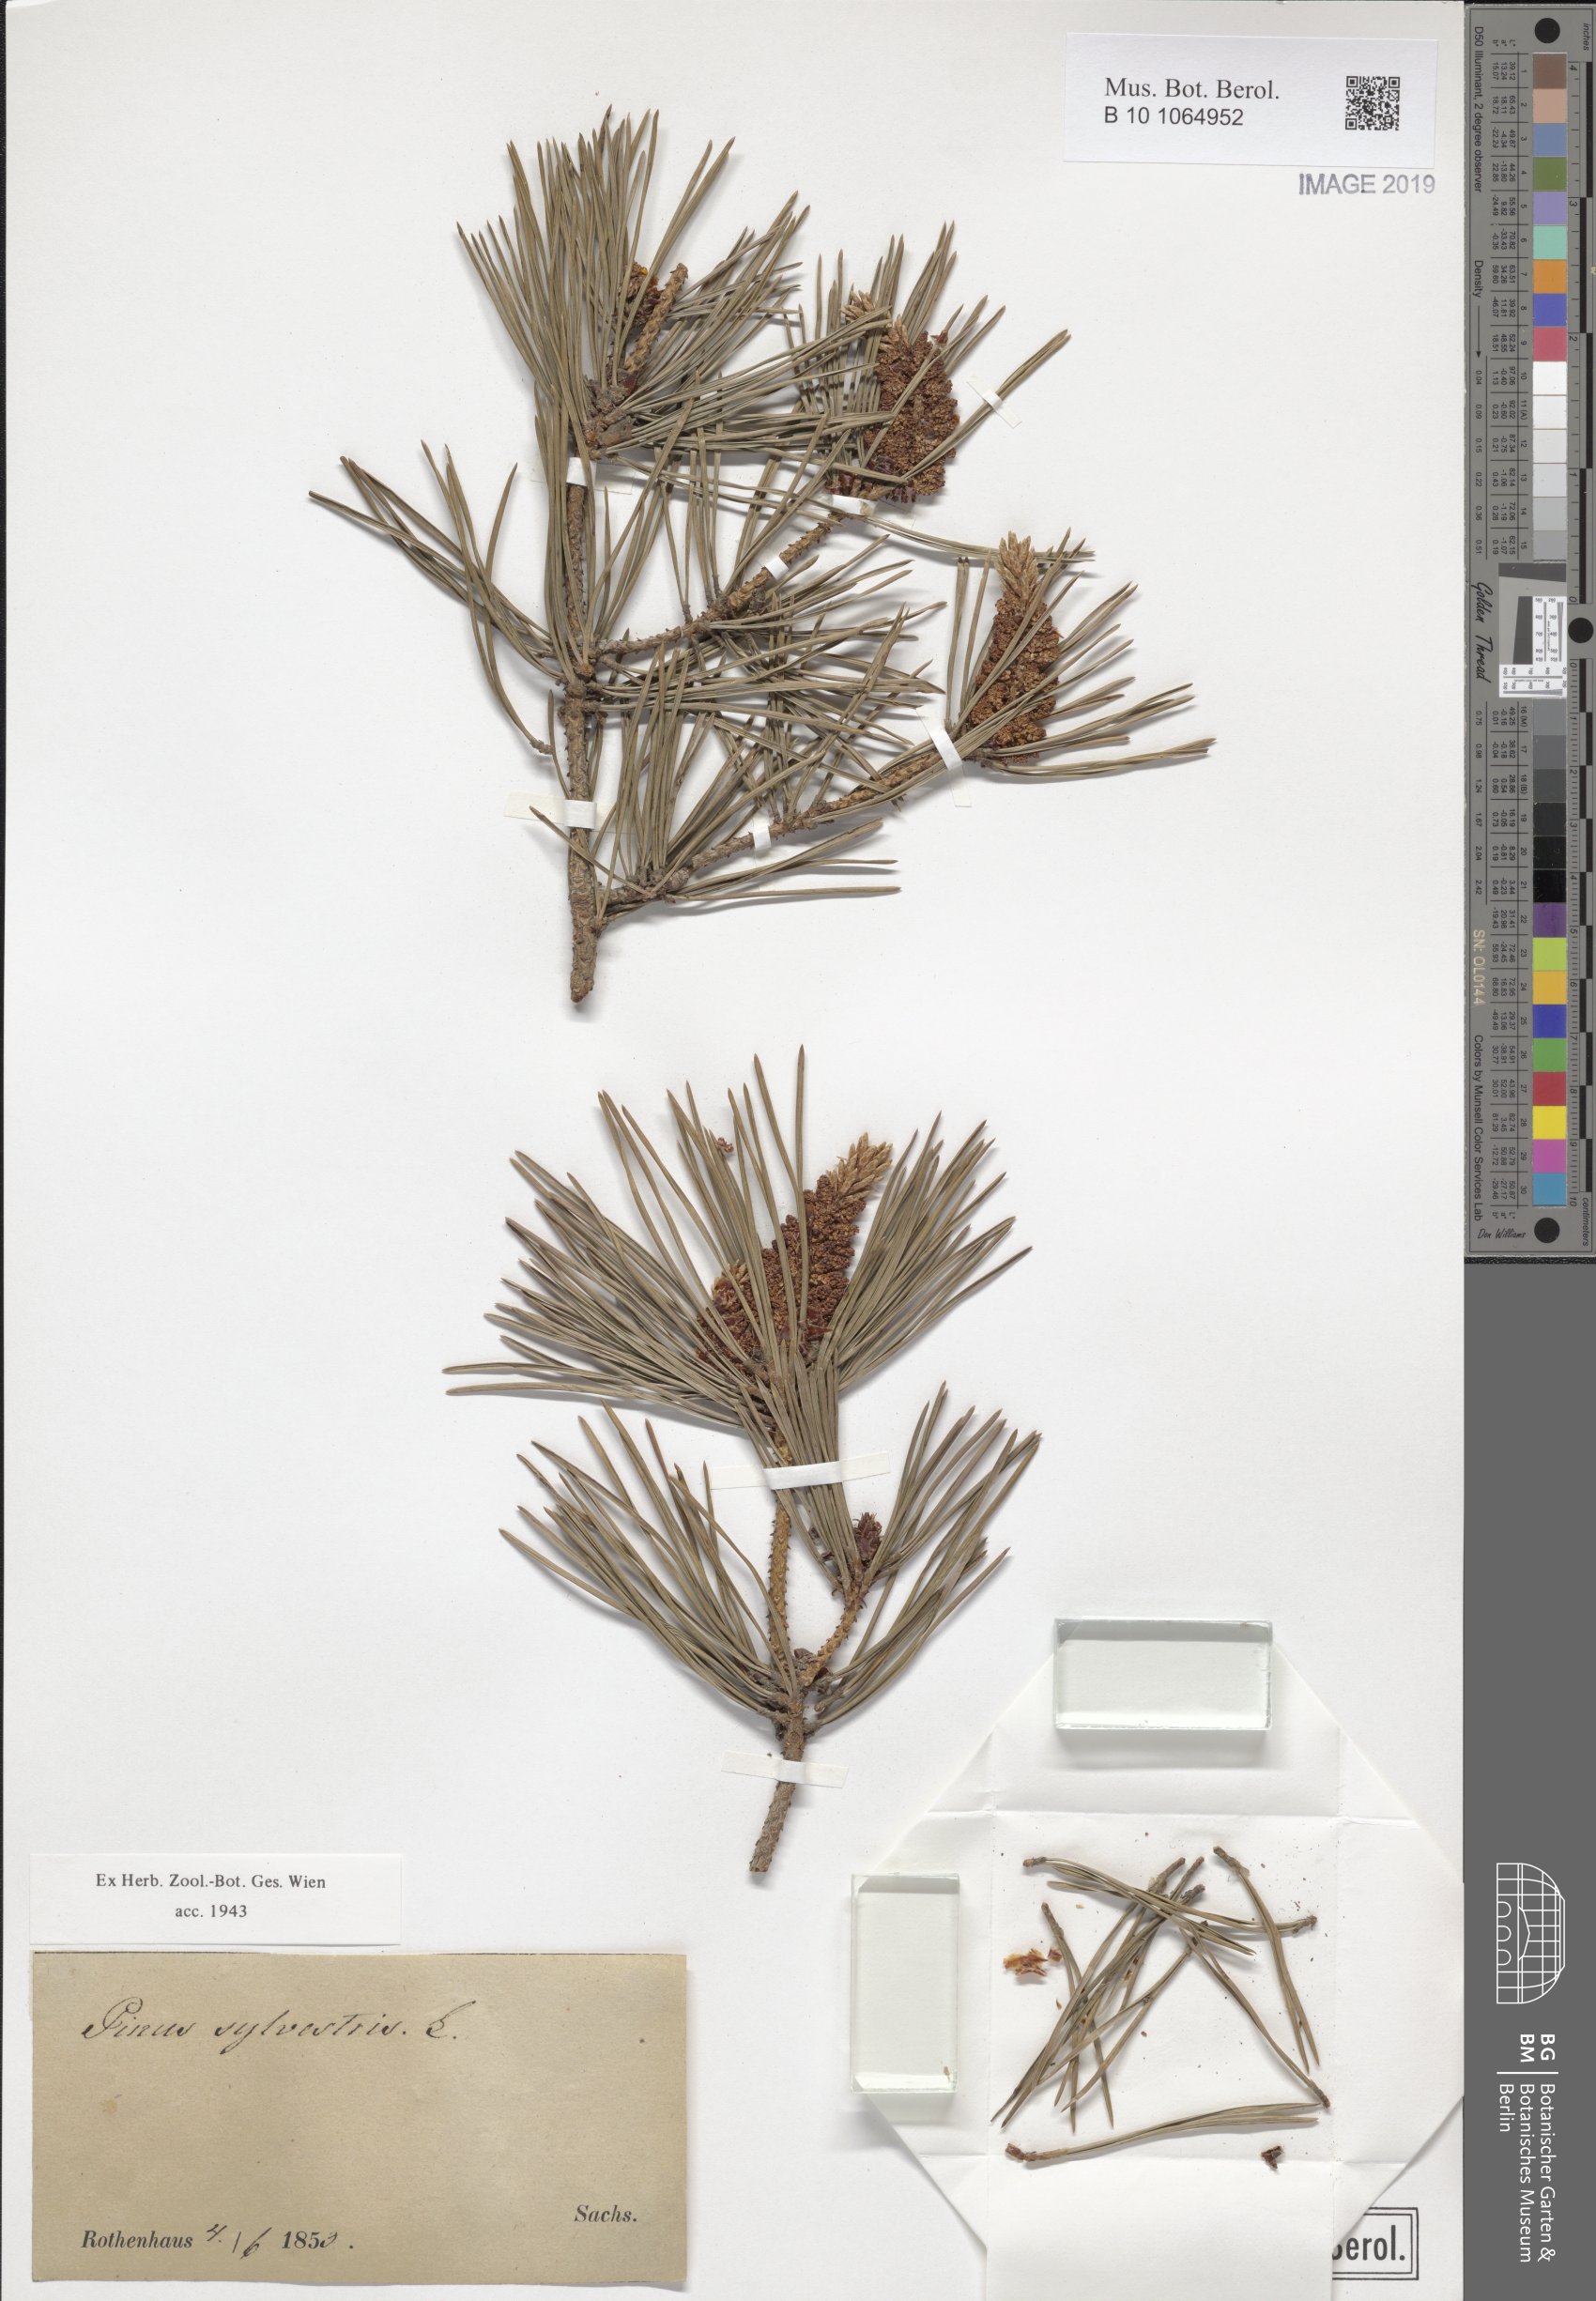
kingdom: Plantae
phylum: Tracheophyta
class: Pinopsida
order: Pinales
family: Pinaceae
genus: Pinus
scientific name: Pinus sylvestris
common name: Scots pine
